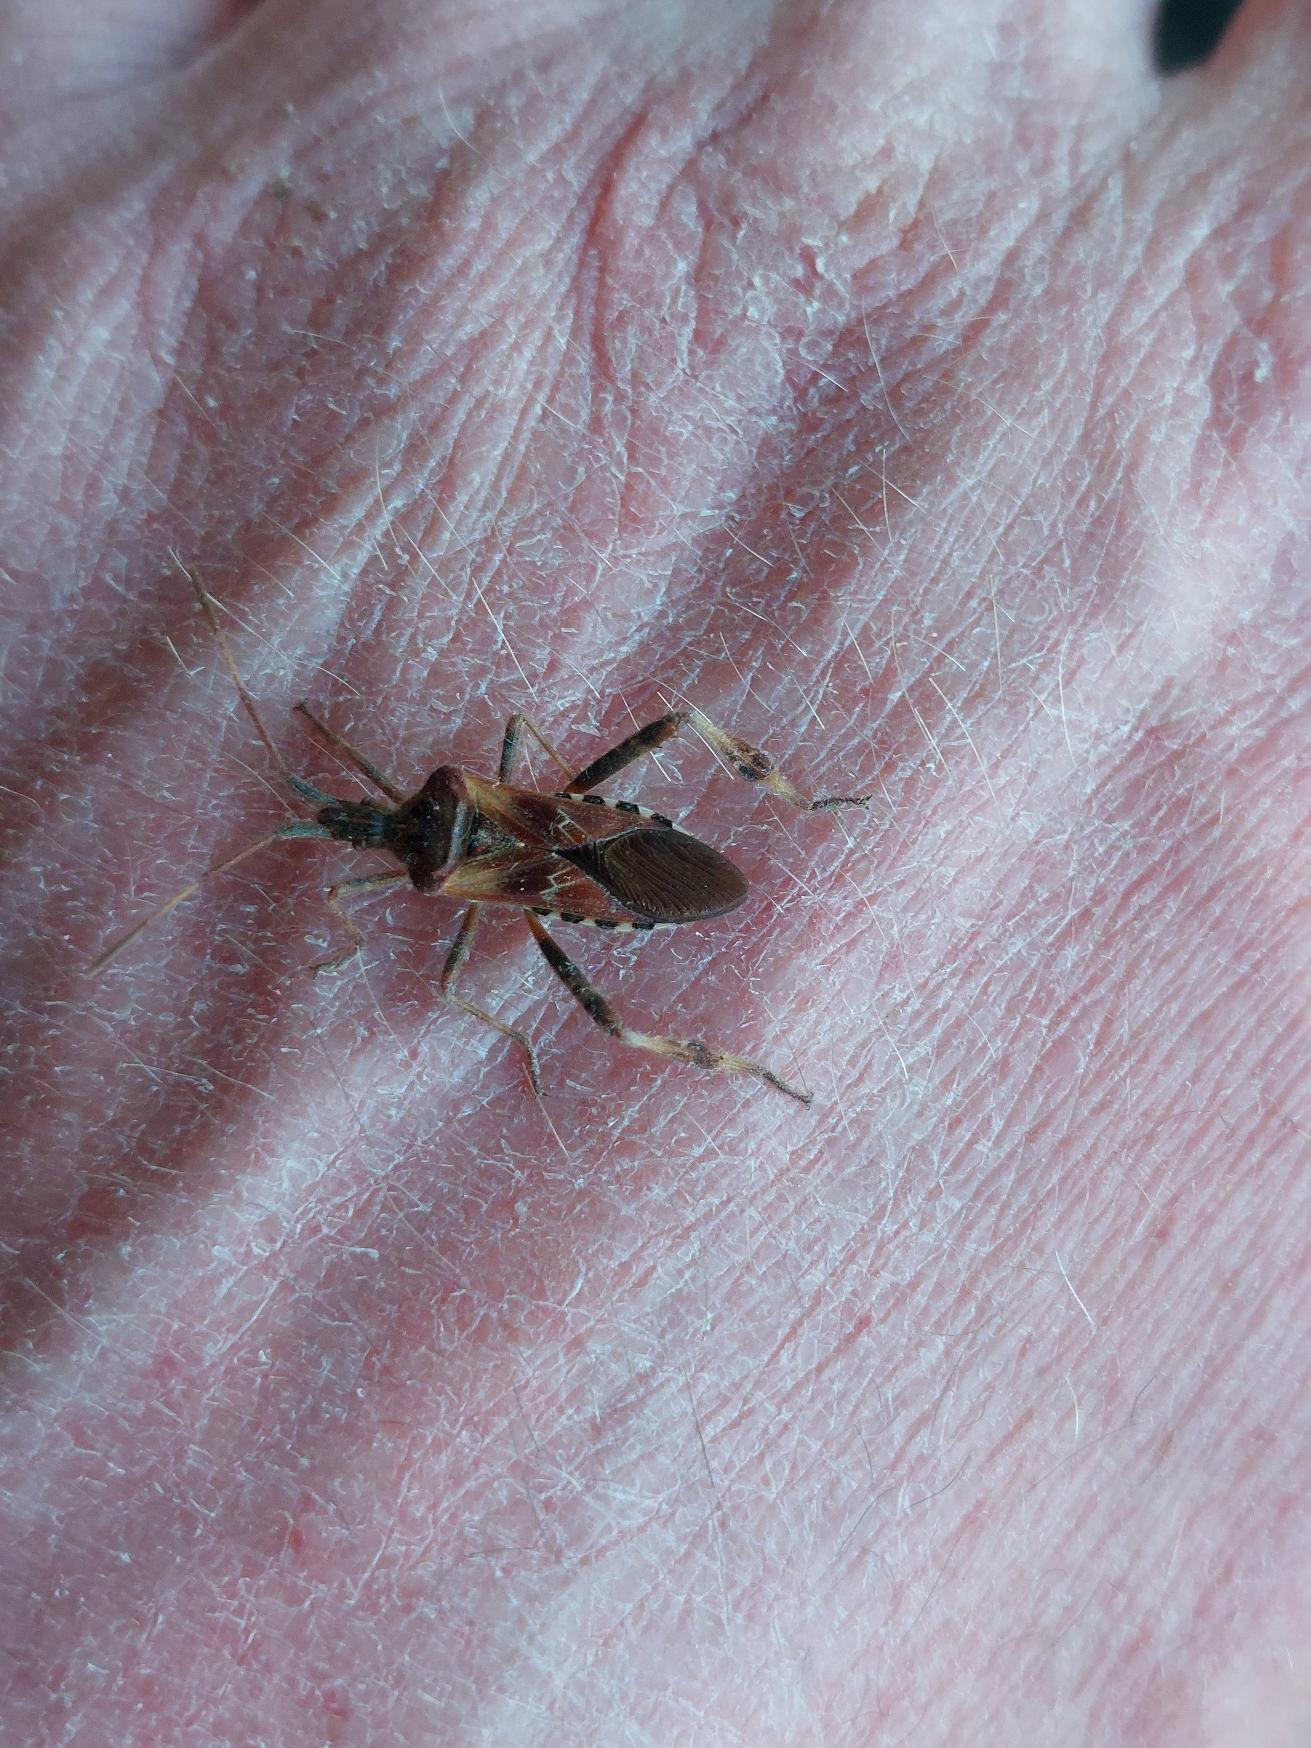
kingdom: Animalia
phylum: Arthropoda
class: Insecta
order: Hemiptera
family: Coreidae
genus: Leptoglossus
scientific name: Leptoglossus occidentalis
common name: Amerikansk fyrretæge
